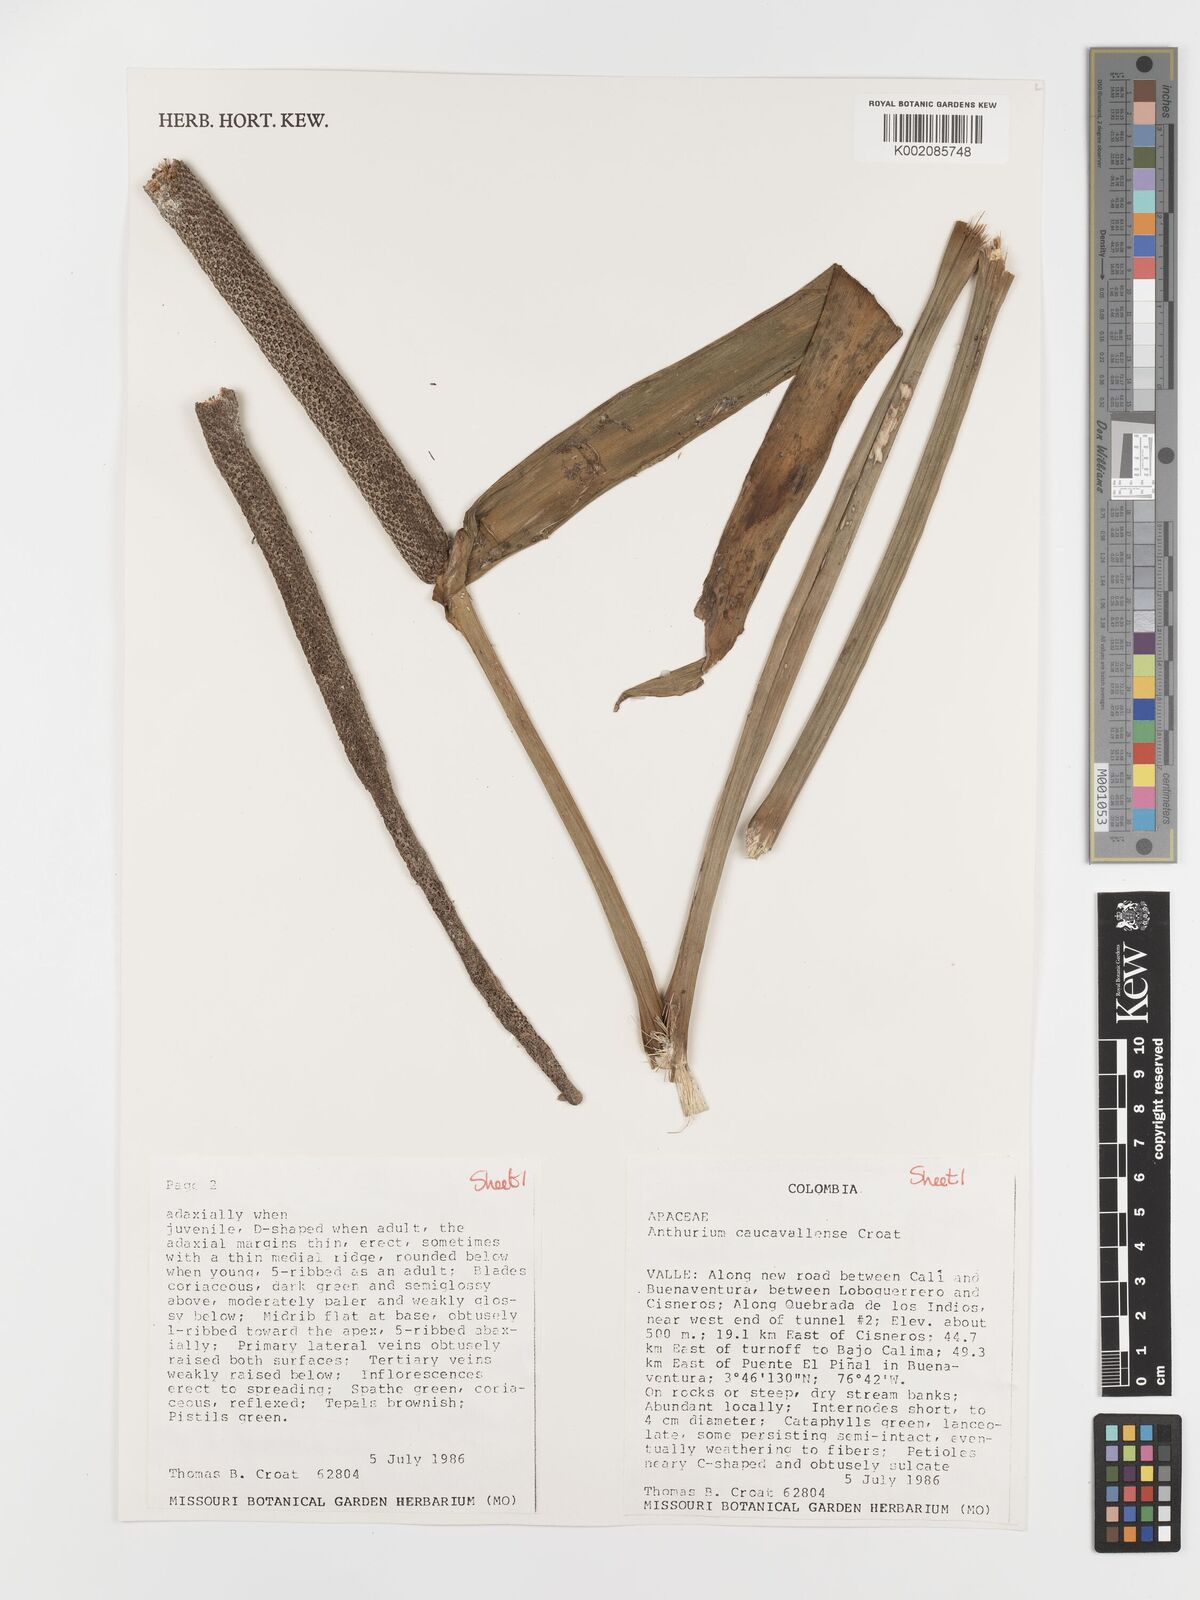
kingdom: Plantae
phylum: Tracheophyta
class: Liliopsida
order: Alismatales
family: Araceae
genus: Anthurium
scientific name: Anthurium caucavallense
